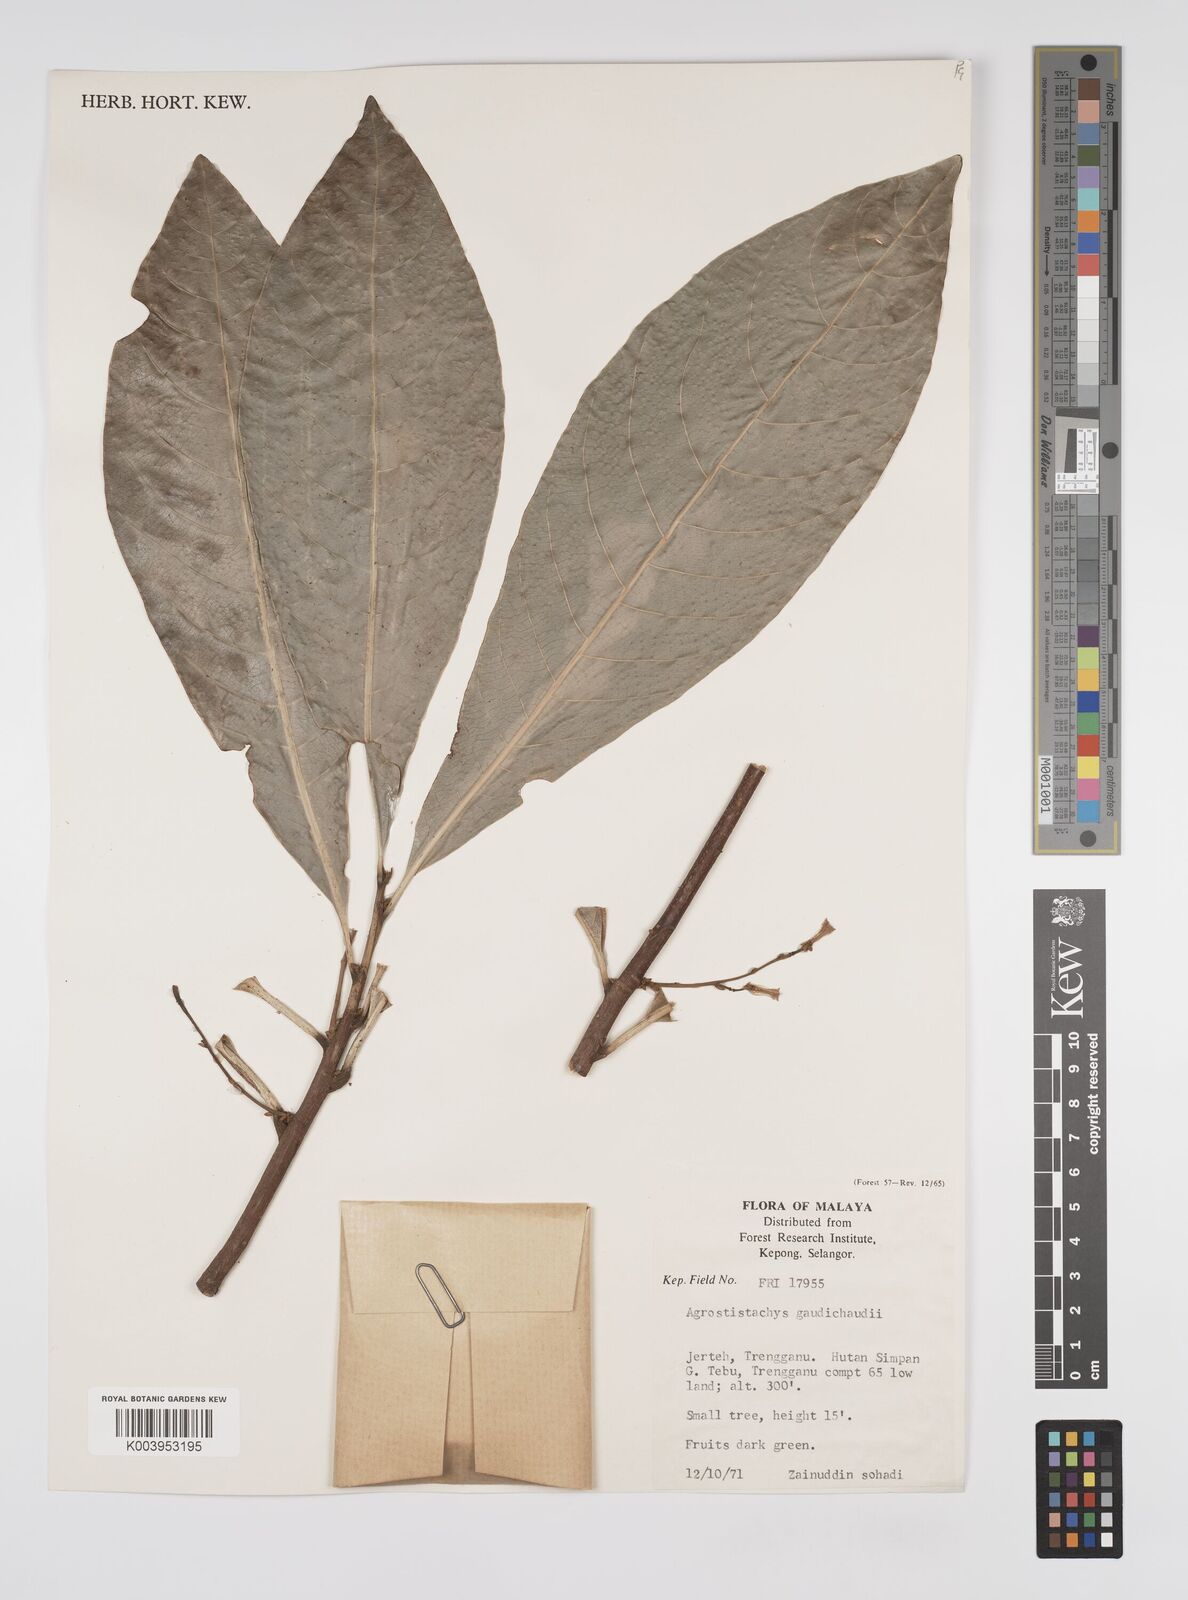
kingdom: Plantae
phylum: Tracheophyta
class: Magnoliopsida
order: Malpighiales
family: Euphorbiaceae
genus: Agrostistachys
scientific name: Agrostistachys gaudichaudii
